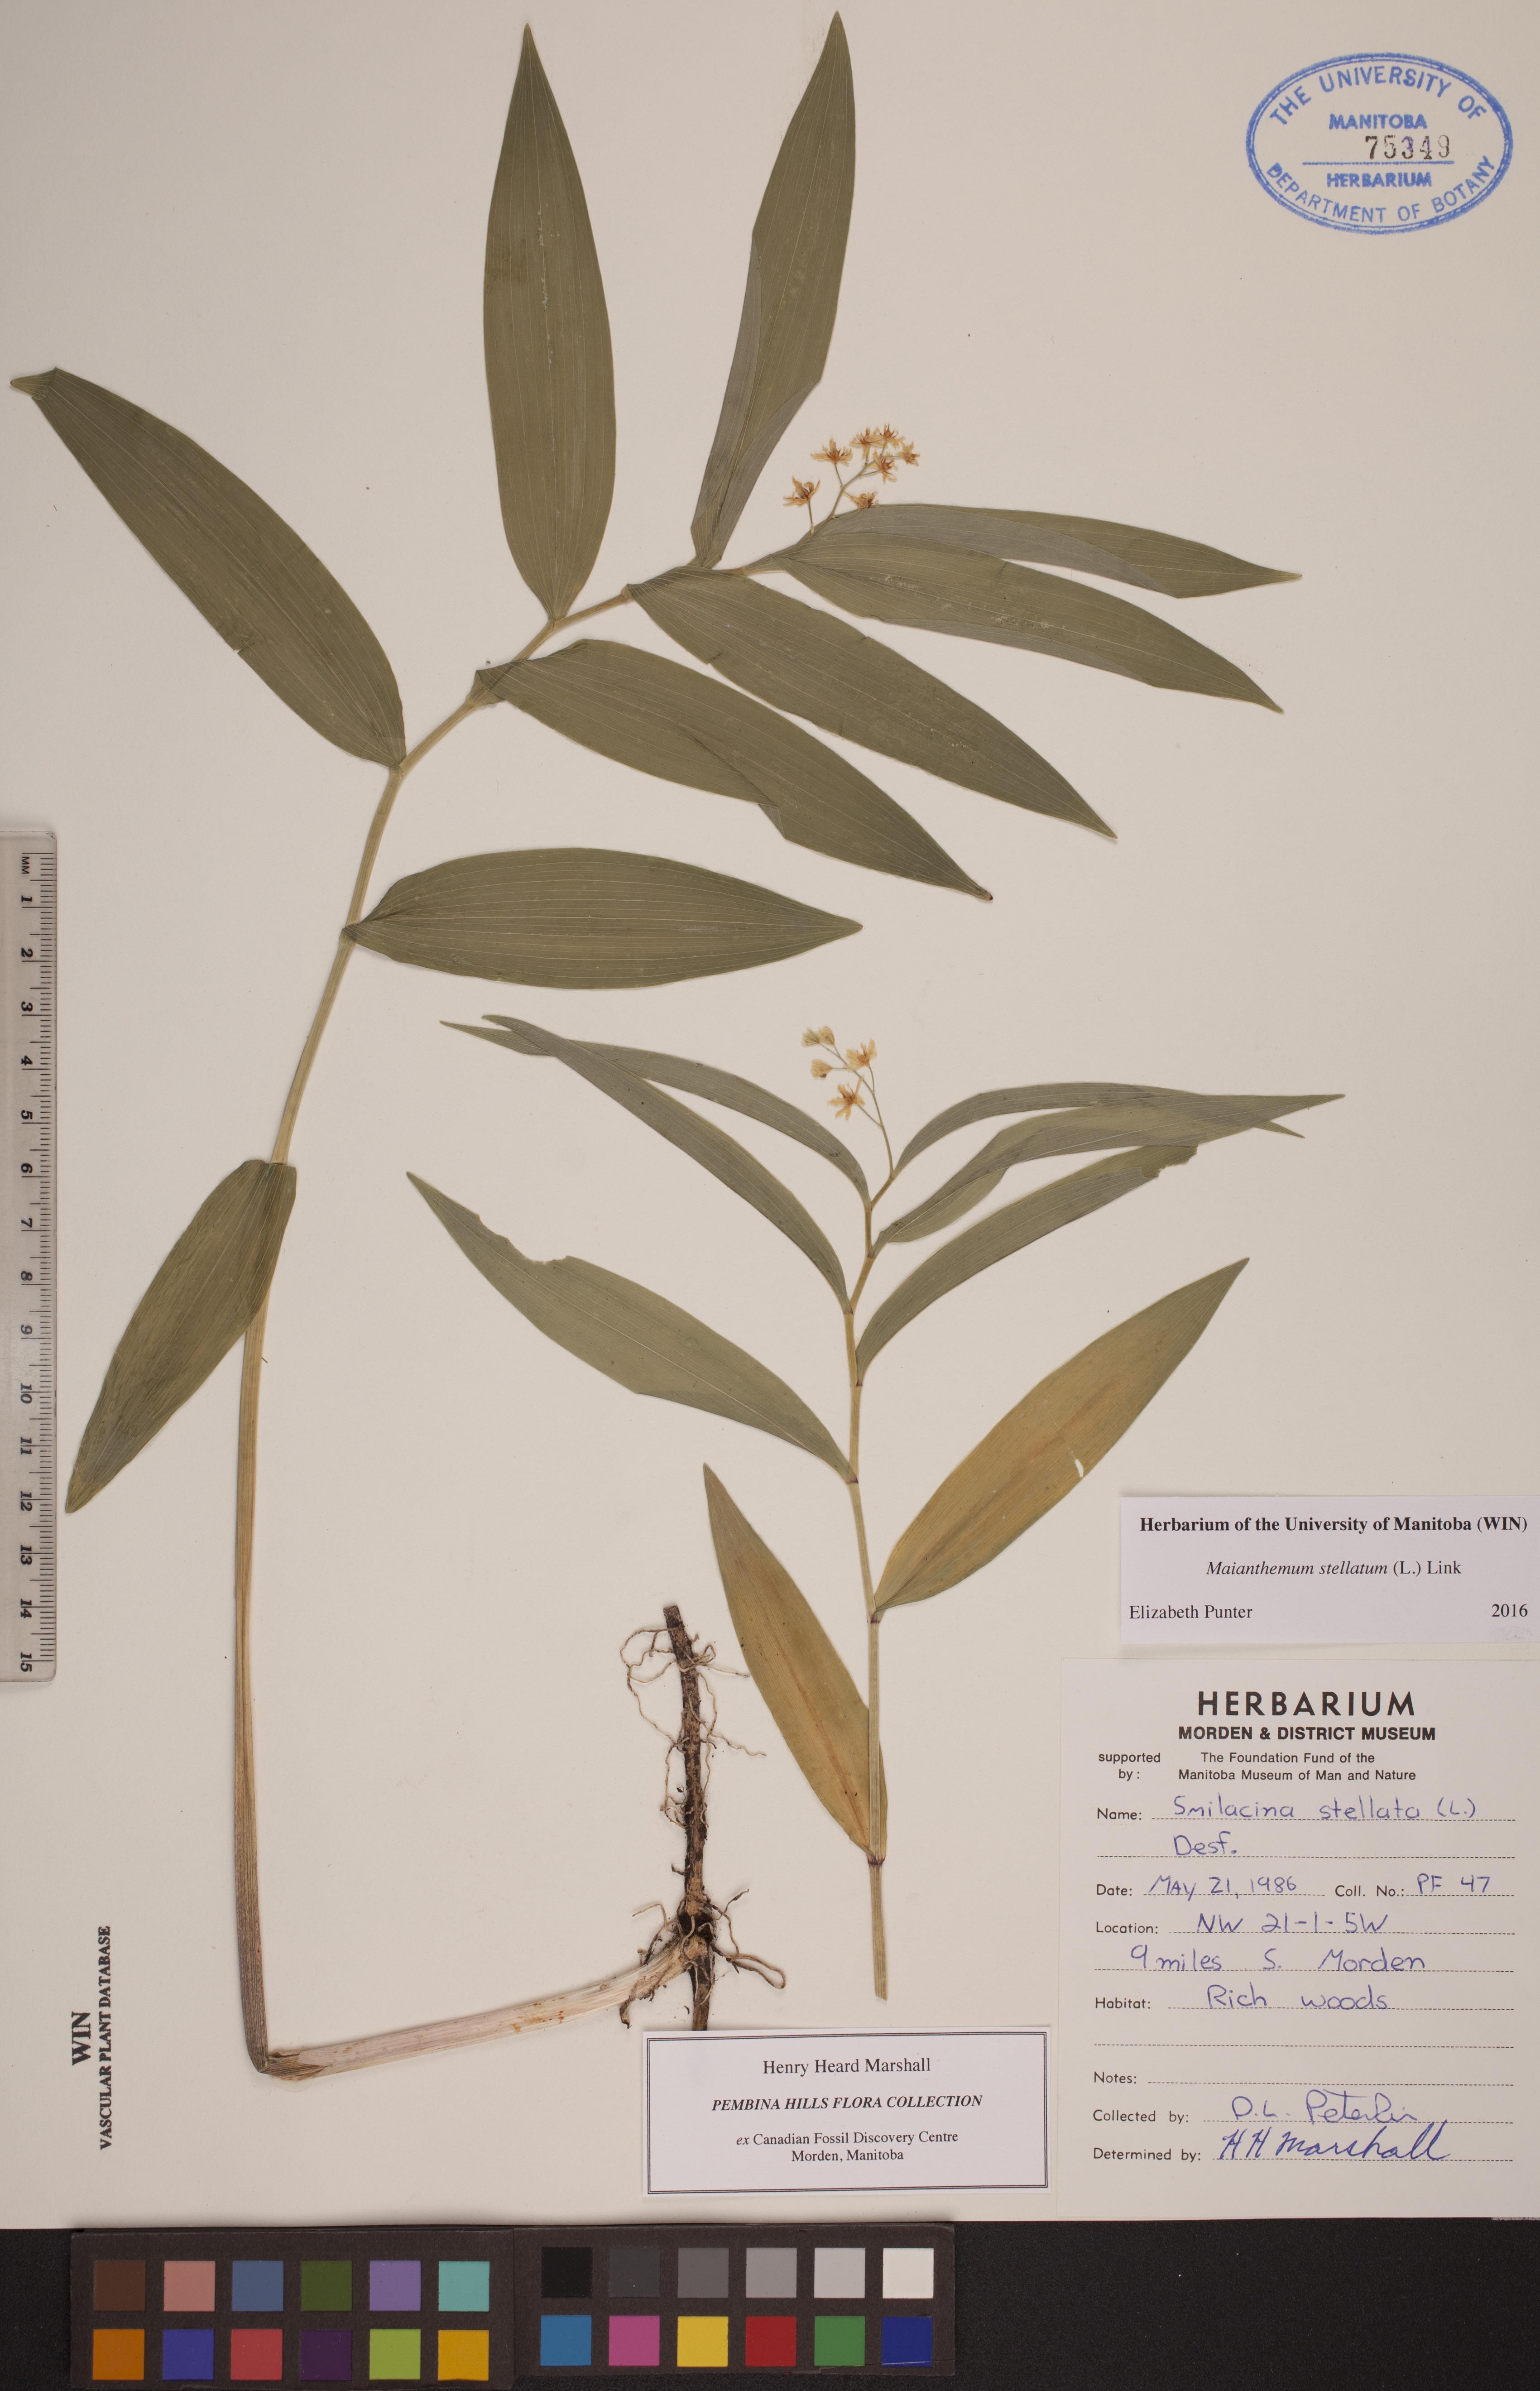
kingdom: Plantae
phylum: Tracheophyta
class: Liliopsida
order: Asparagales
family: Asparagaceae
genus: Maianthemum
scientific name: Maianthemum stellatum
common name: Little false solomon's seal
